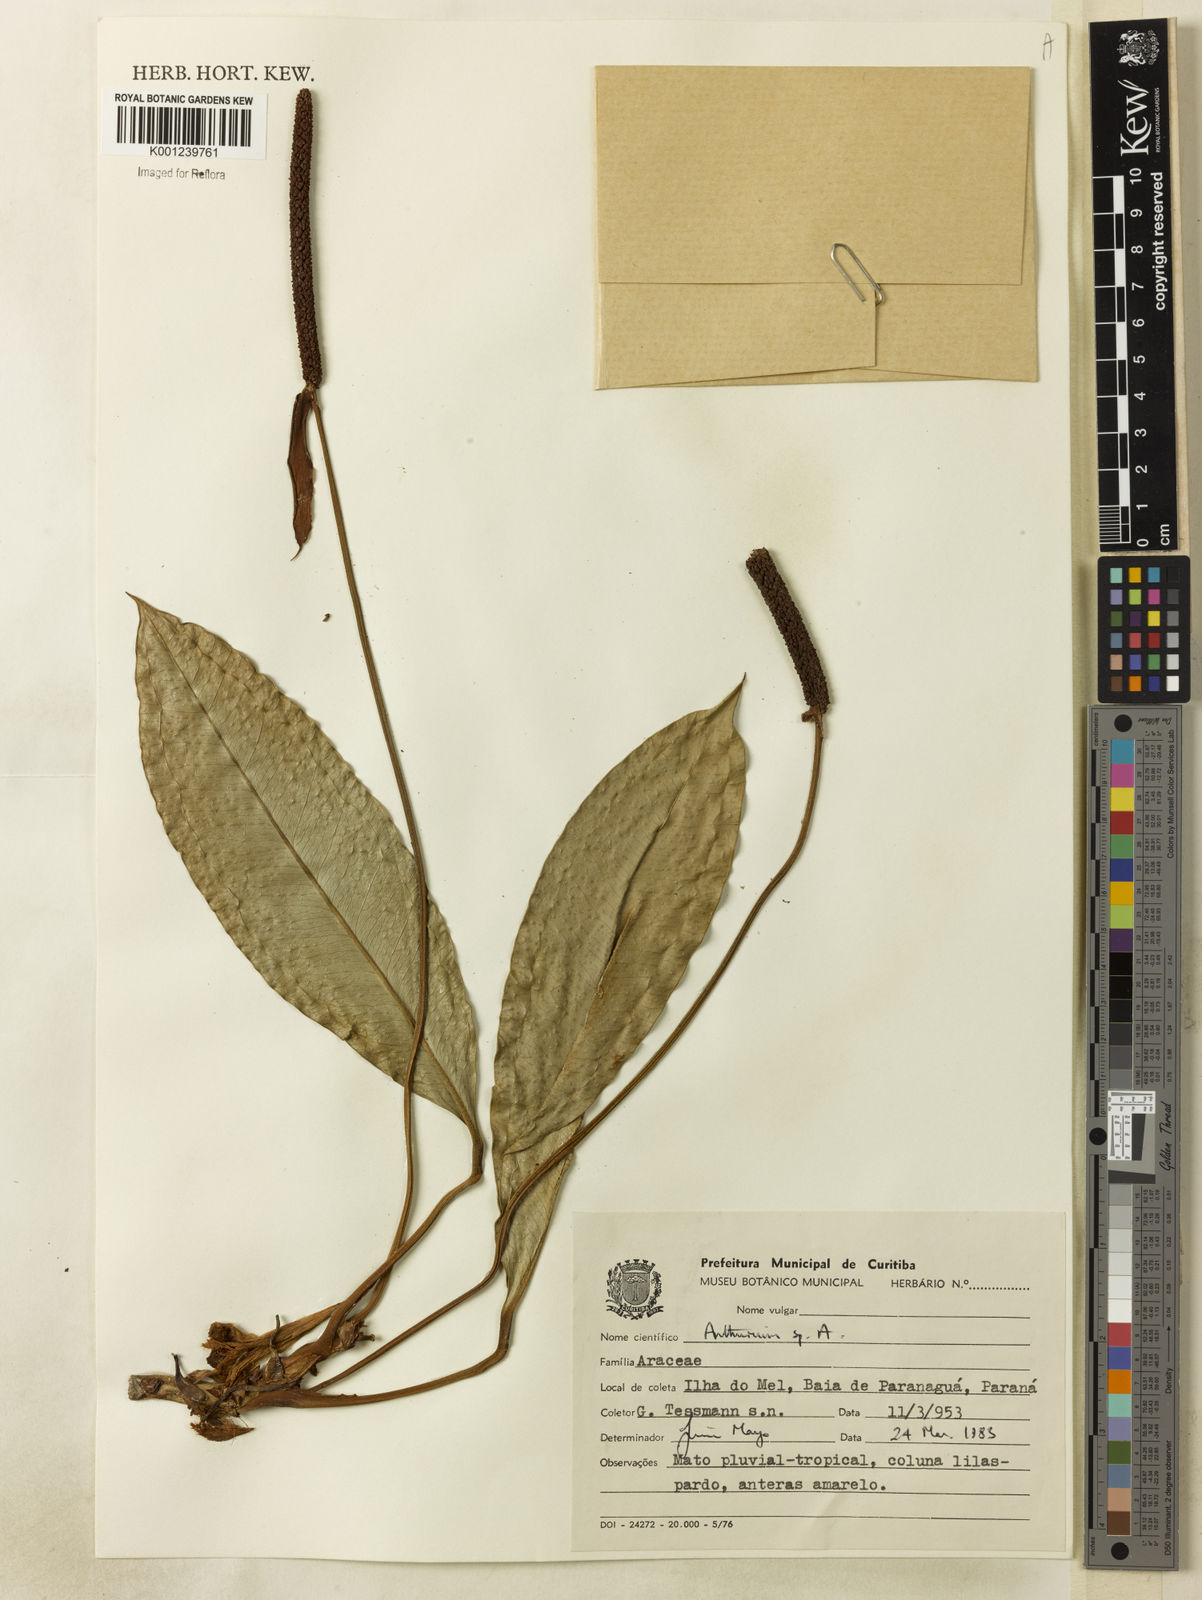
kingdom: Plantae
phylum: Tracheophyta
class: Liliopsida
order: Alismatales
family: Araceae
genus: Anthurium
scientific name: Anthurium
